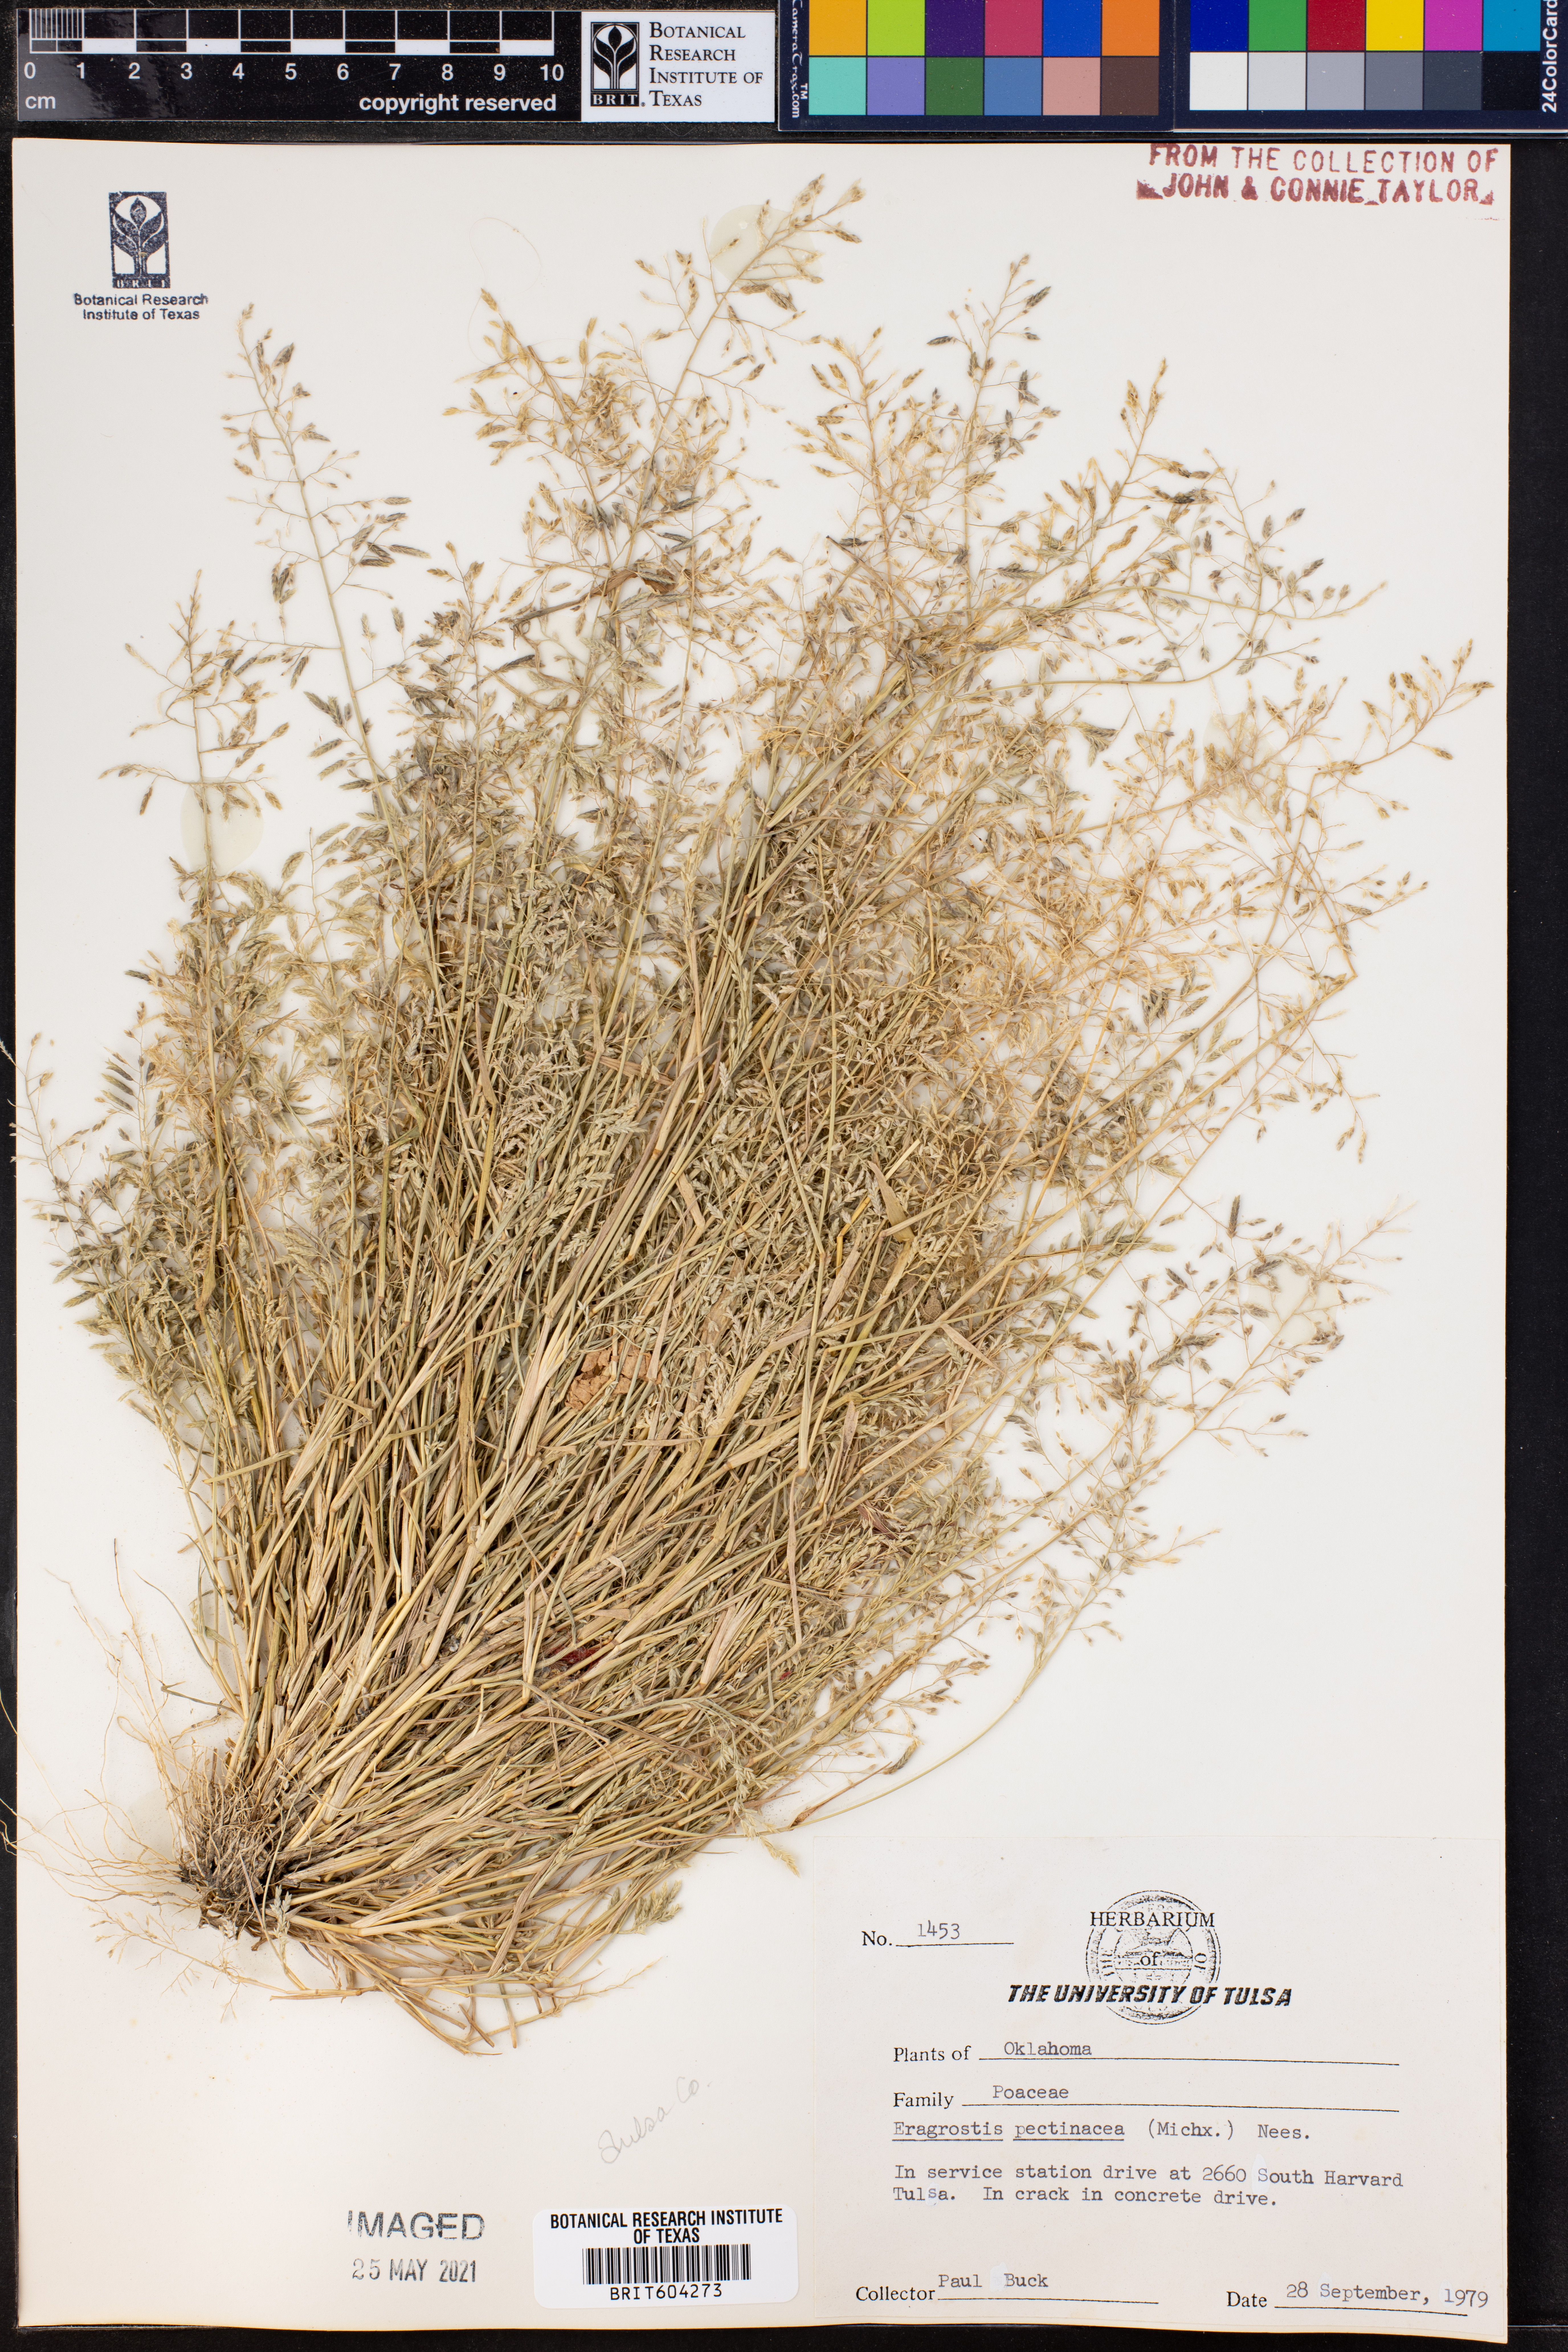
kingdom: Plantae
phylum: Tracheophyta
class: Liliopsida
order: Poales
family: Poaceae
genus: Eragrostis
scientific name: Eragrostis pectinacea
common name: Tufted lovegrass
